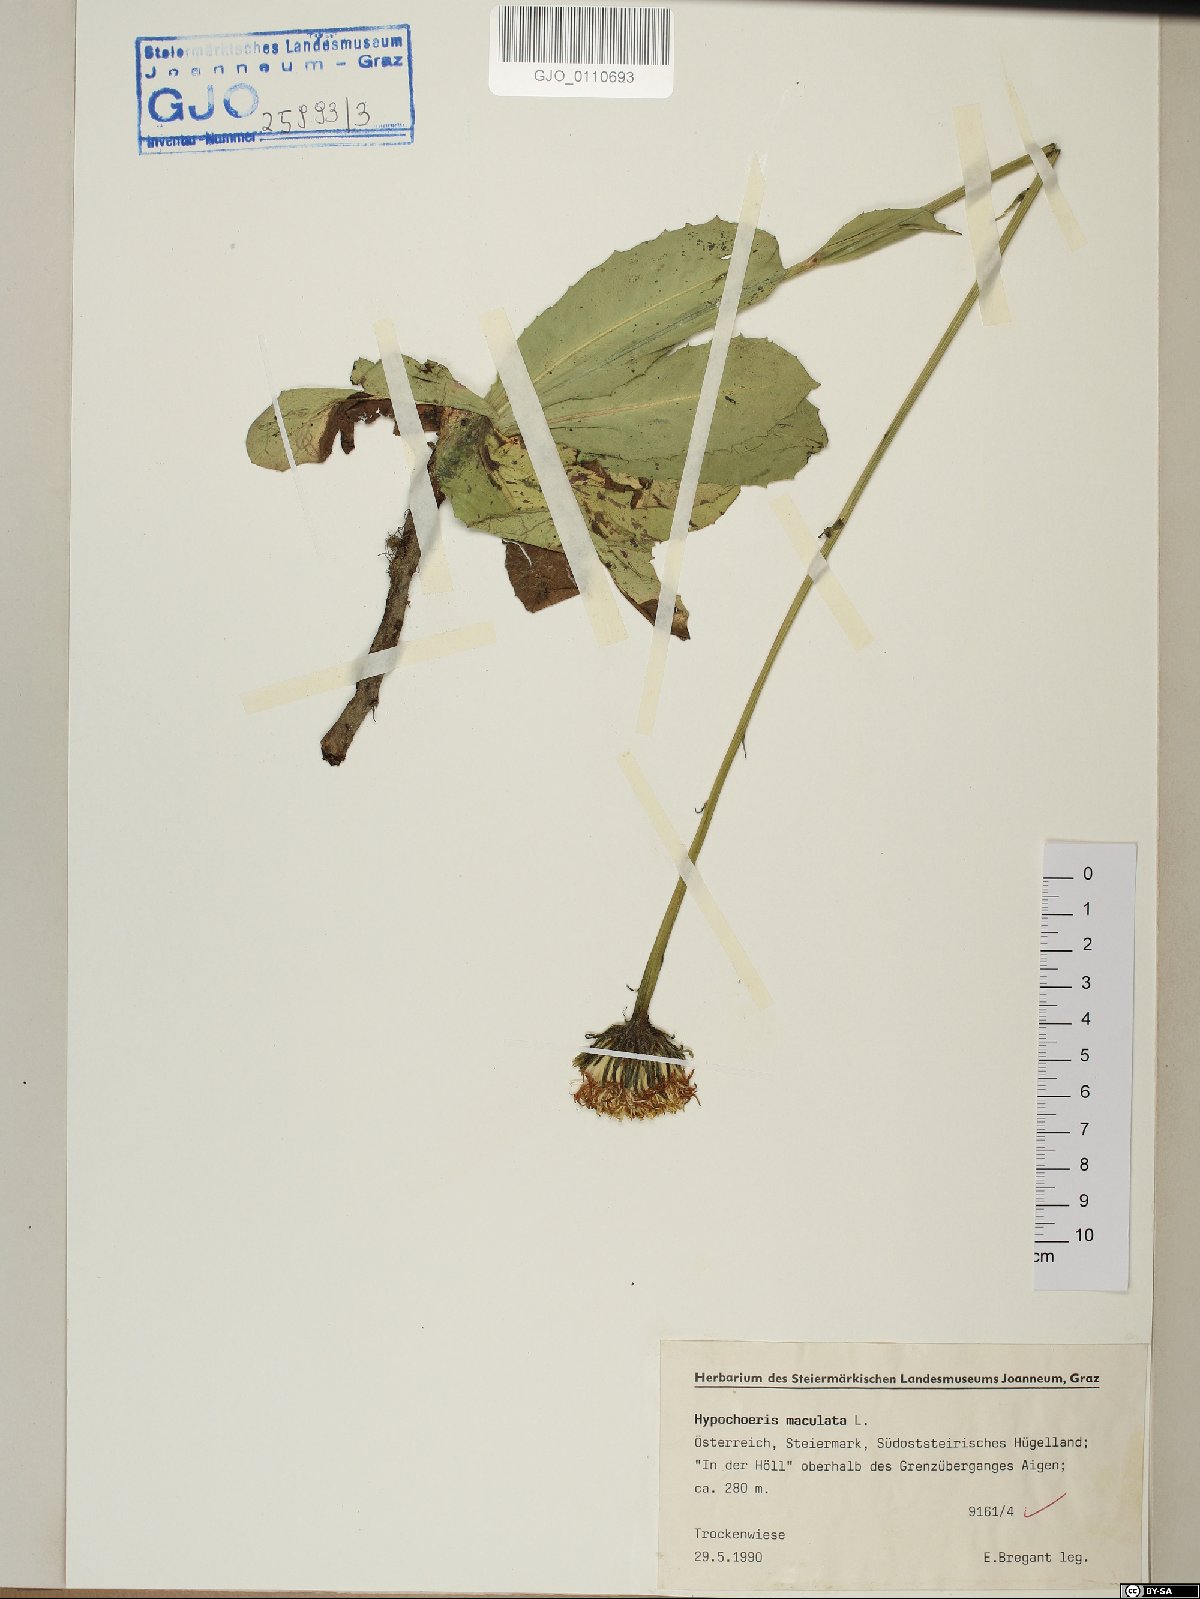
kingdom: Plantae
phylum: Tracheophyta
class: Magnoliopsida
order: Asterales
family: Asteraceae
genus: Trommsdorffia
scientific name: Trommsdorffia maculata
